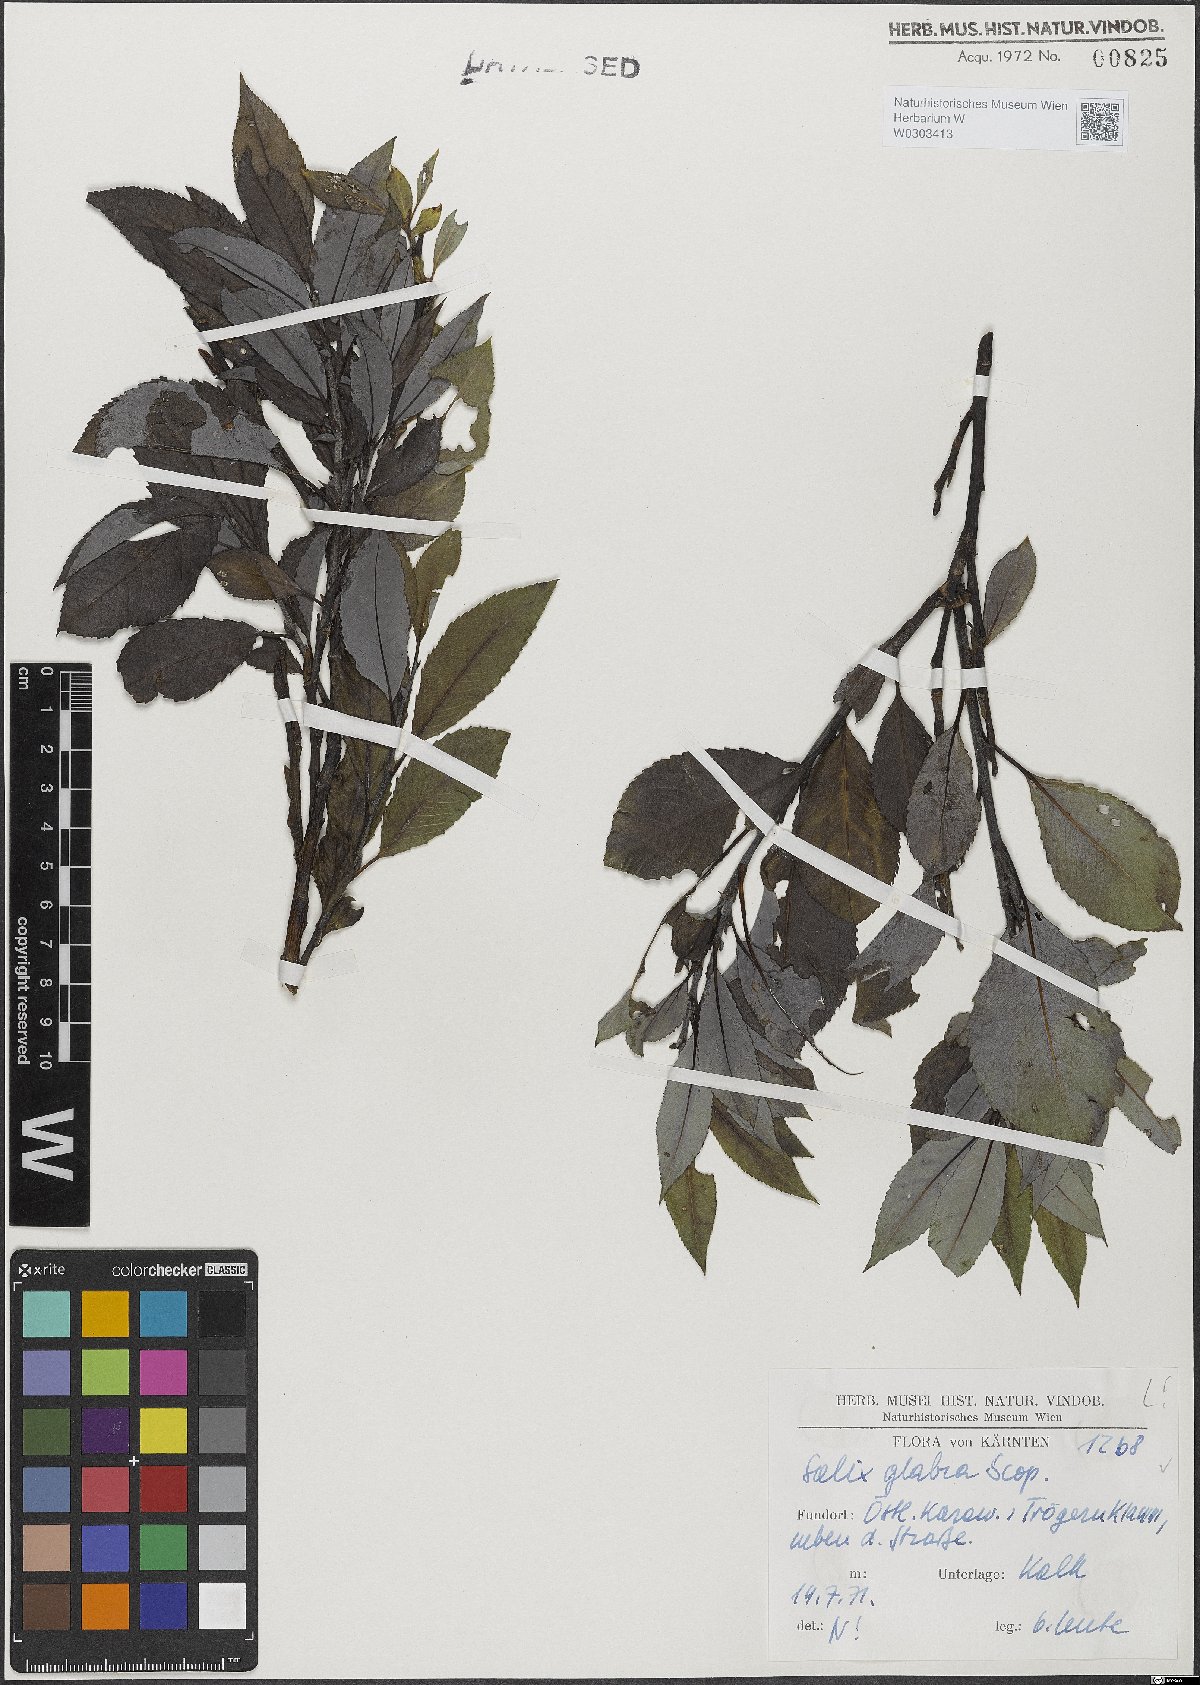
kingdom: Plantae
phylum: Tracheophyta
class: Magnoliopsida
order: Malpighiales
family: Salicaceae
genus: Salix
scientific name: Salix glabra
